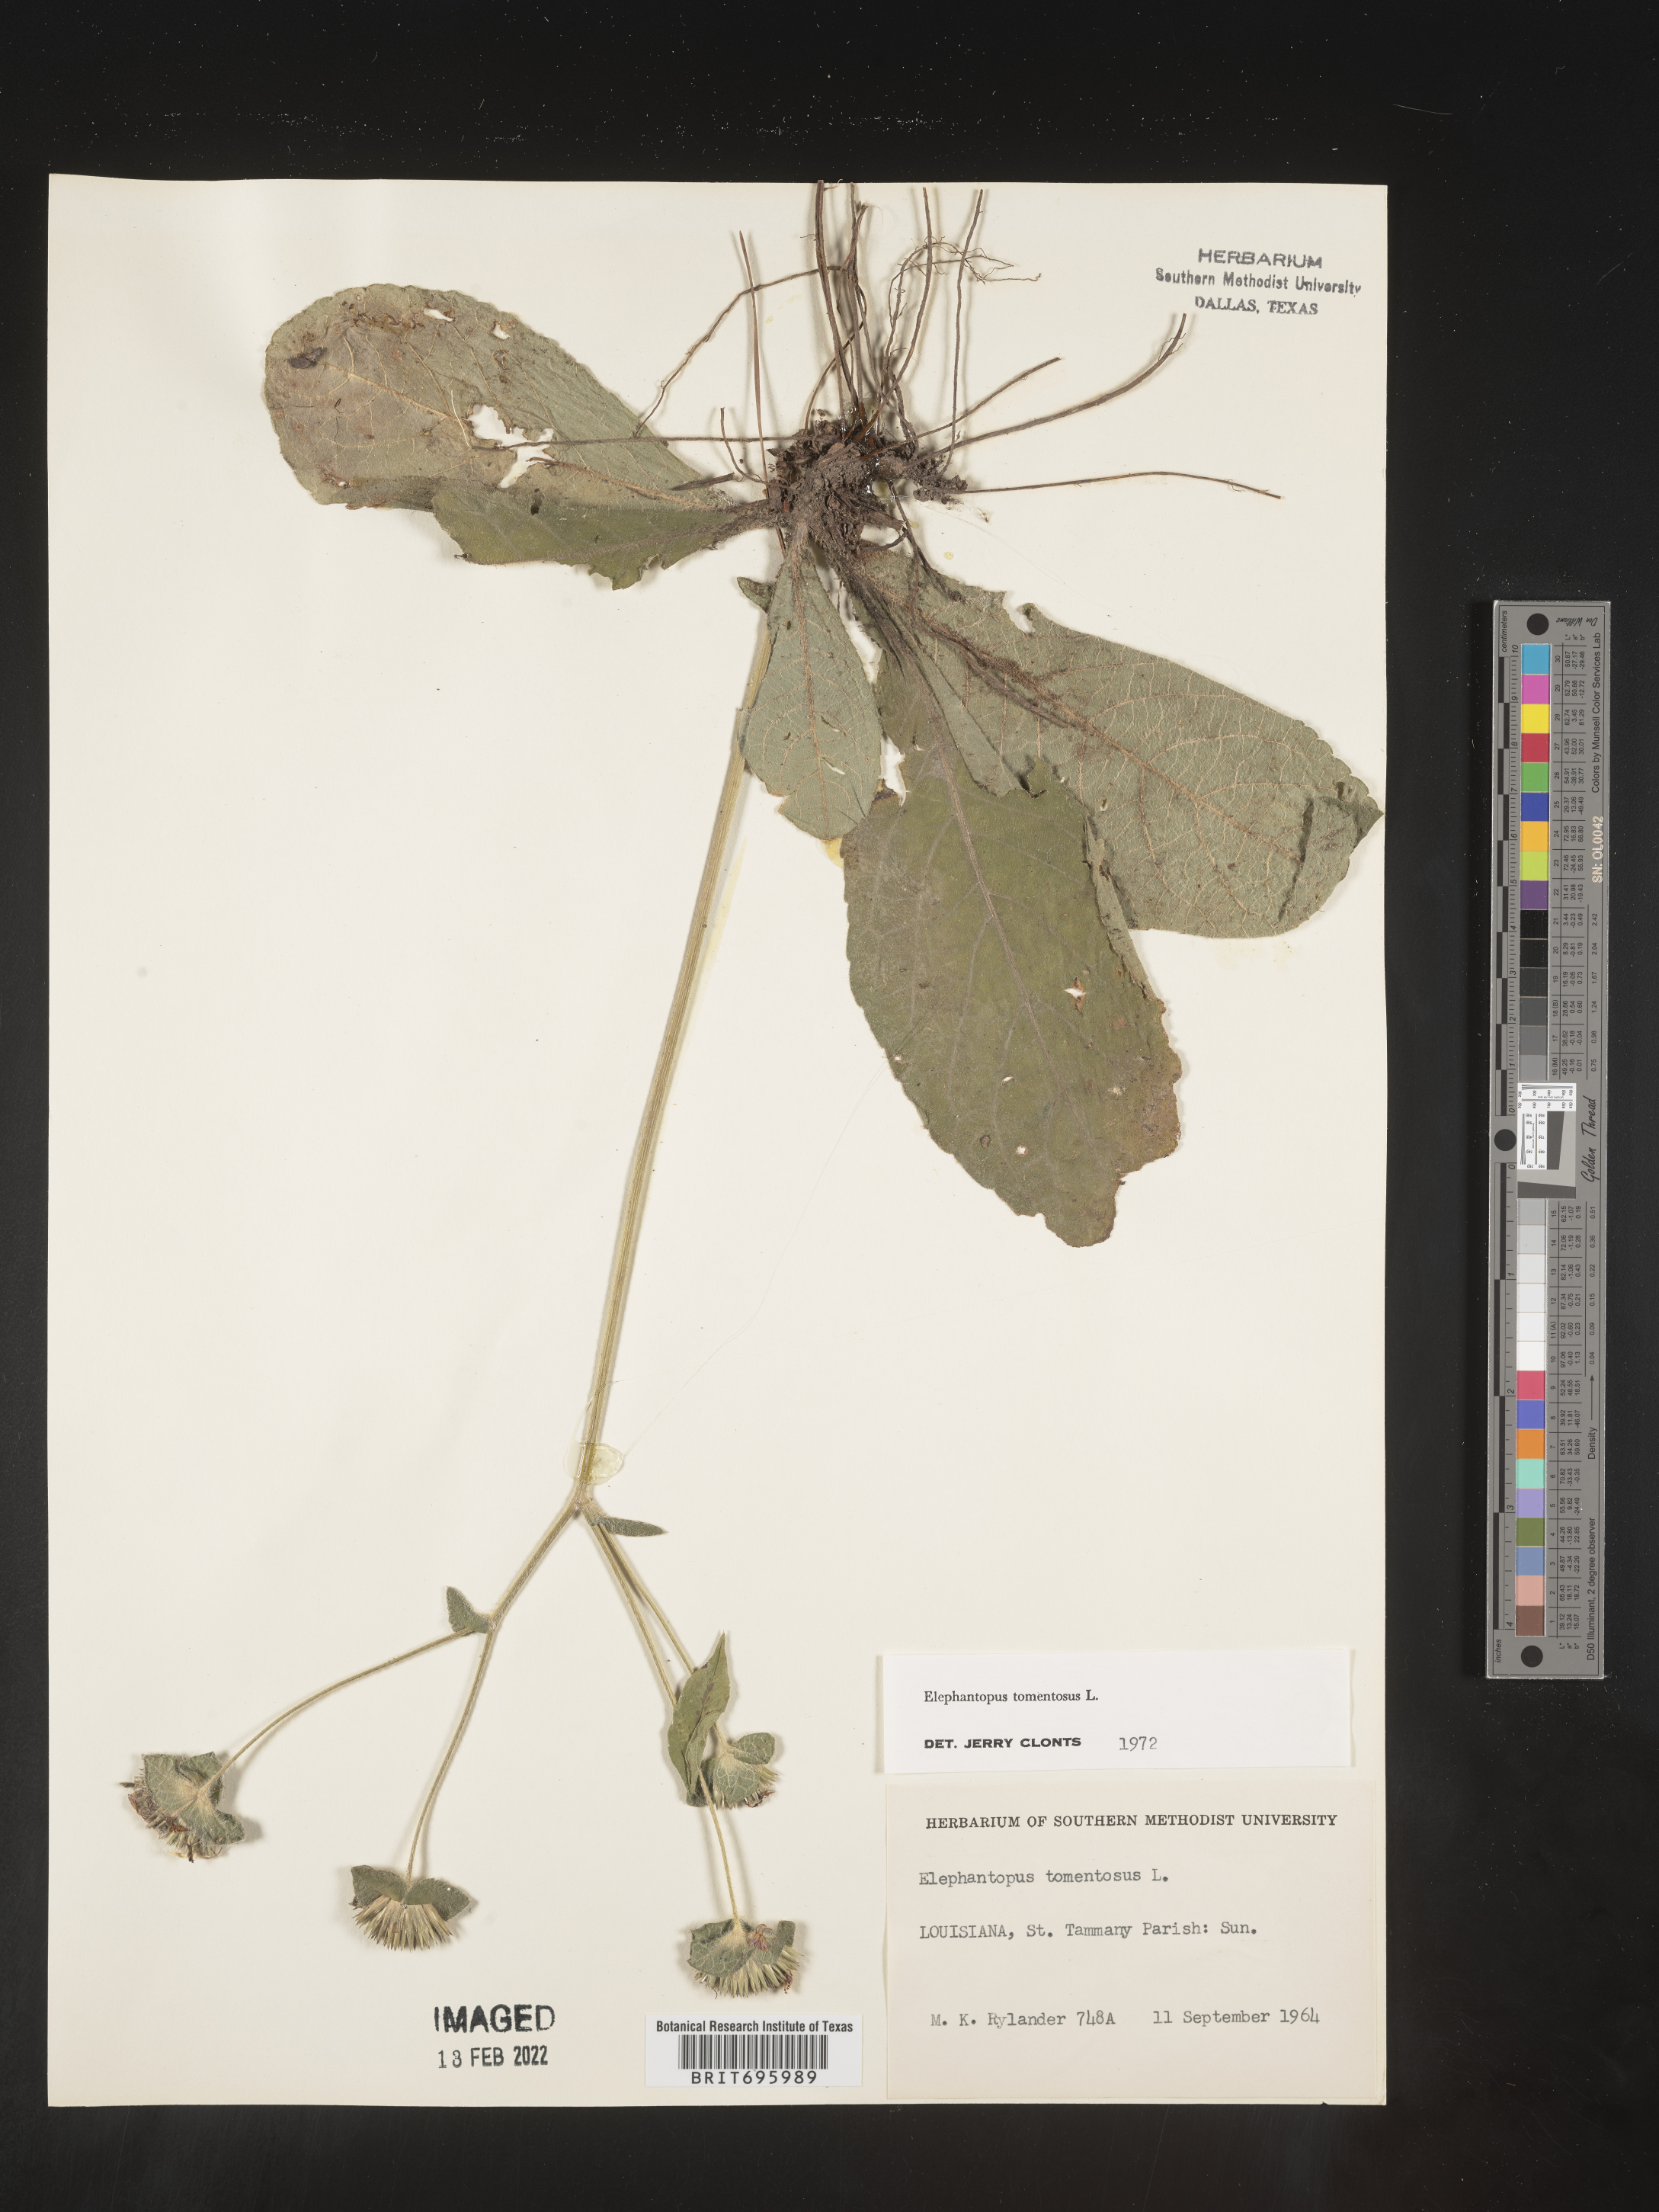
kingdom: Plantae
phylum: Tracheophyta
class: Magnoliopsida
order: Asterales
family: Asteraceae
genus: Elephantopus
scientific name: Elephantopus tomentosus
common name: Tobacco-weed
